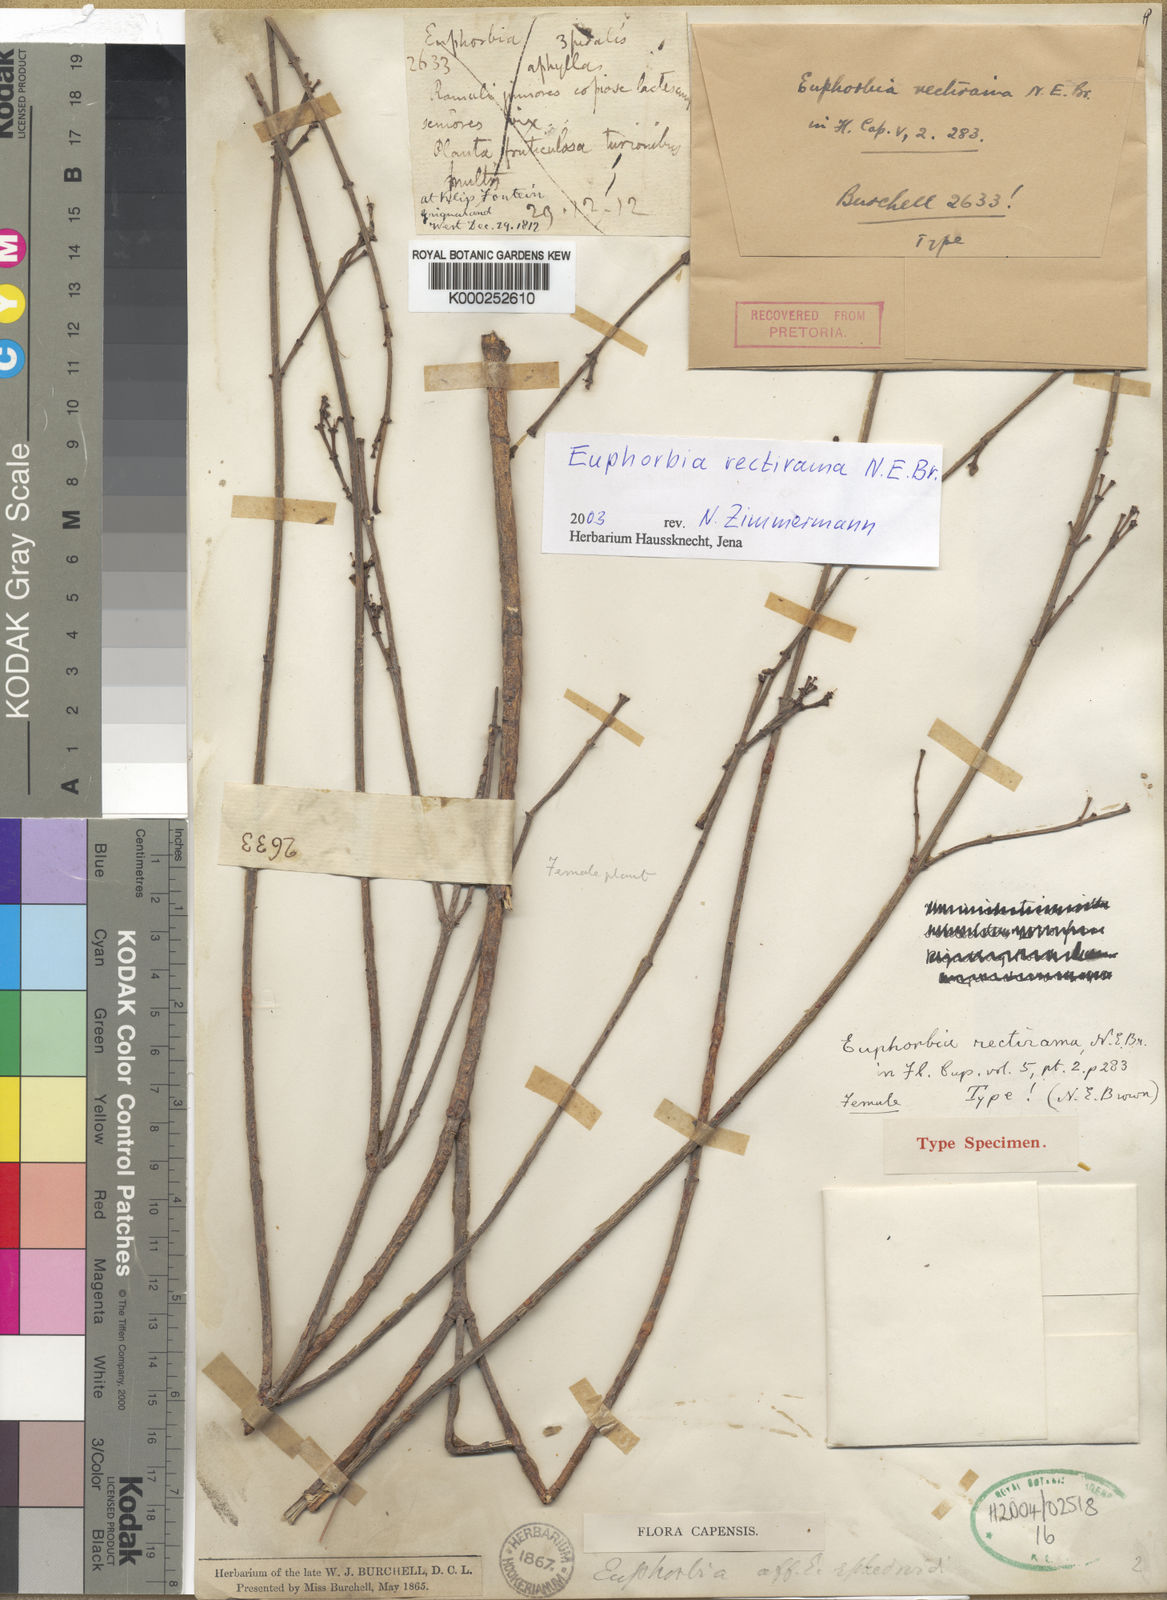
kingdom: Plantae
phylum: Tracheophyta
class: Magnoliopsida
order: Malpighiales
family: Euphorbiaceae
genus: Euphorbia
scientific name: Euphorbia spartaria
